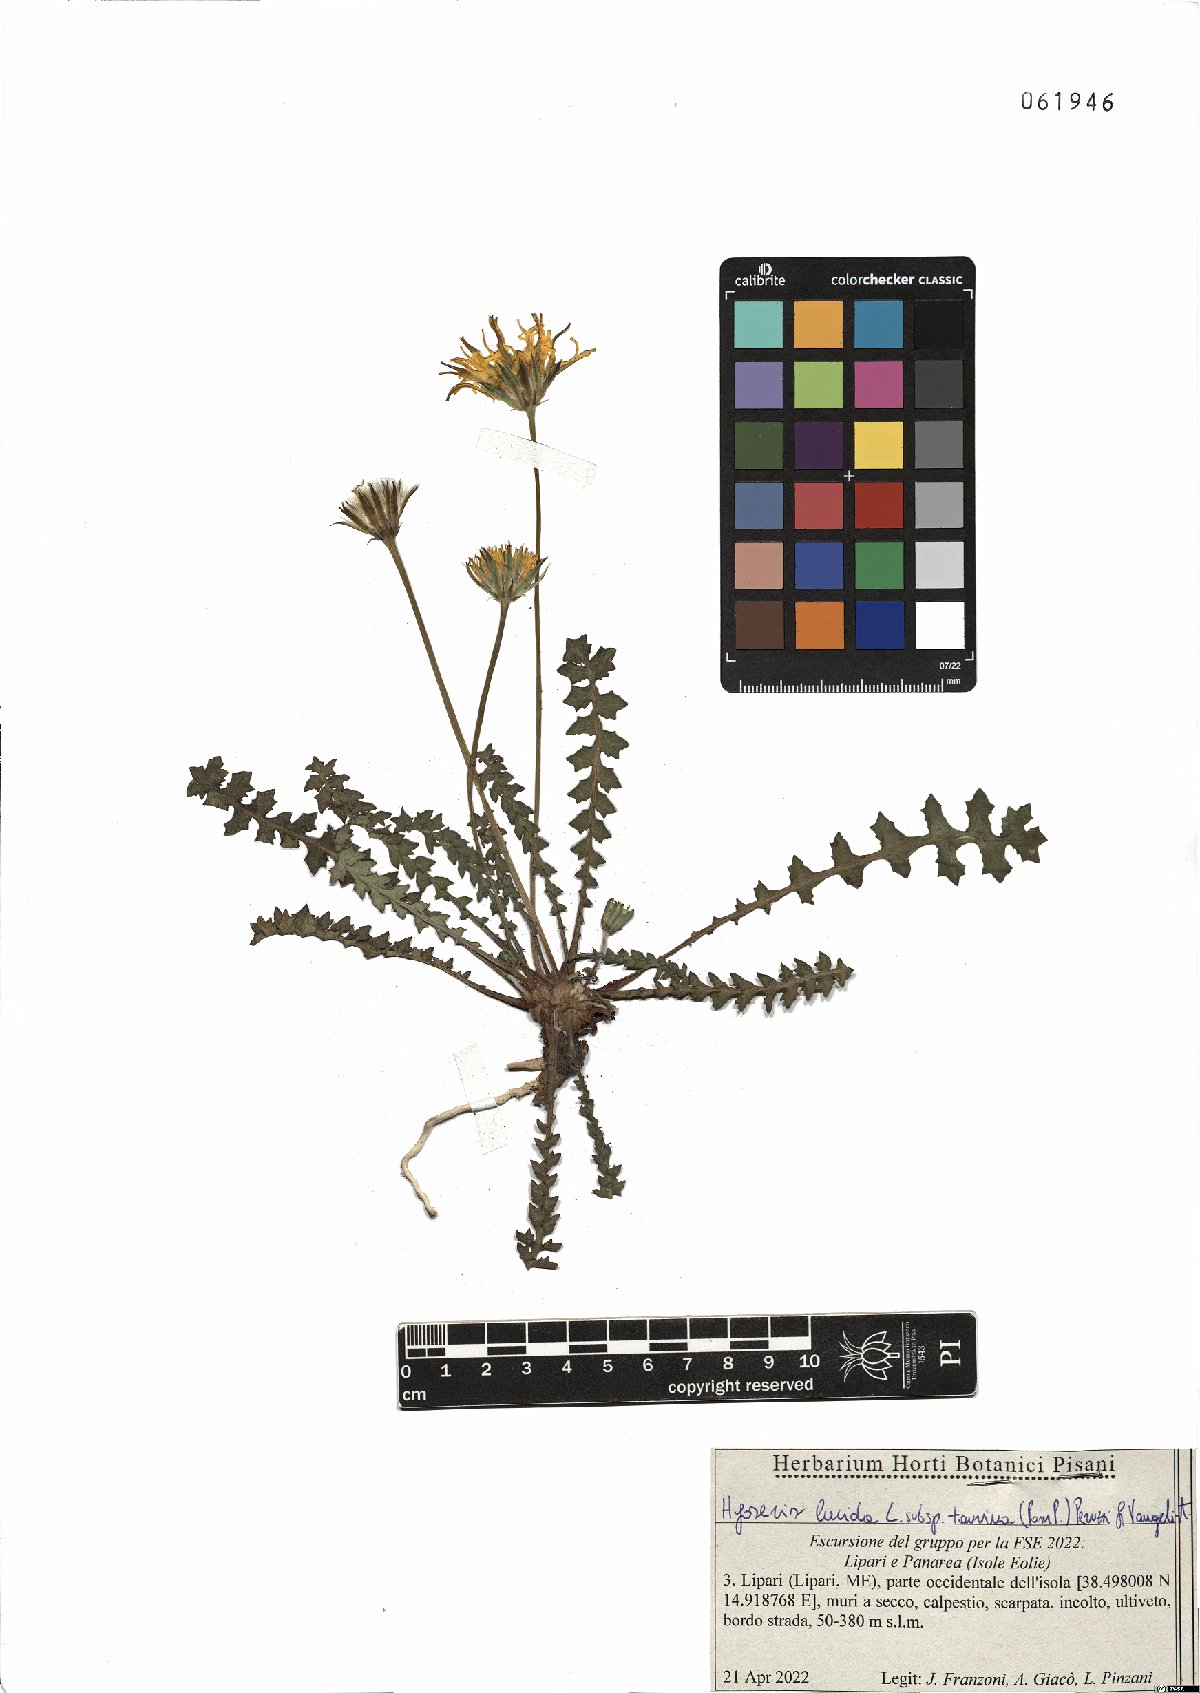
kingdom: Plantae
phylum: Tracheophyta
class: Magnoliopsida
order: Asterales
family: Asteraceae
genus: Hyoseris
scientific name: Hyoseris lucida
